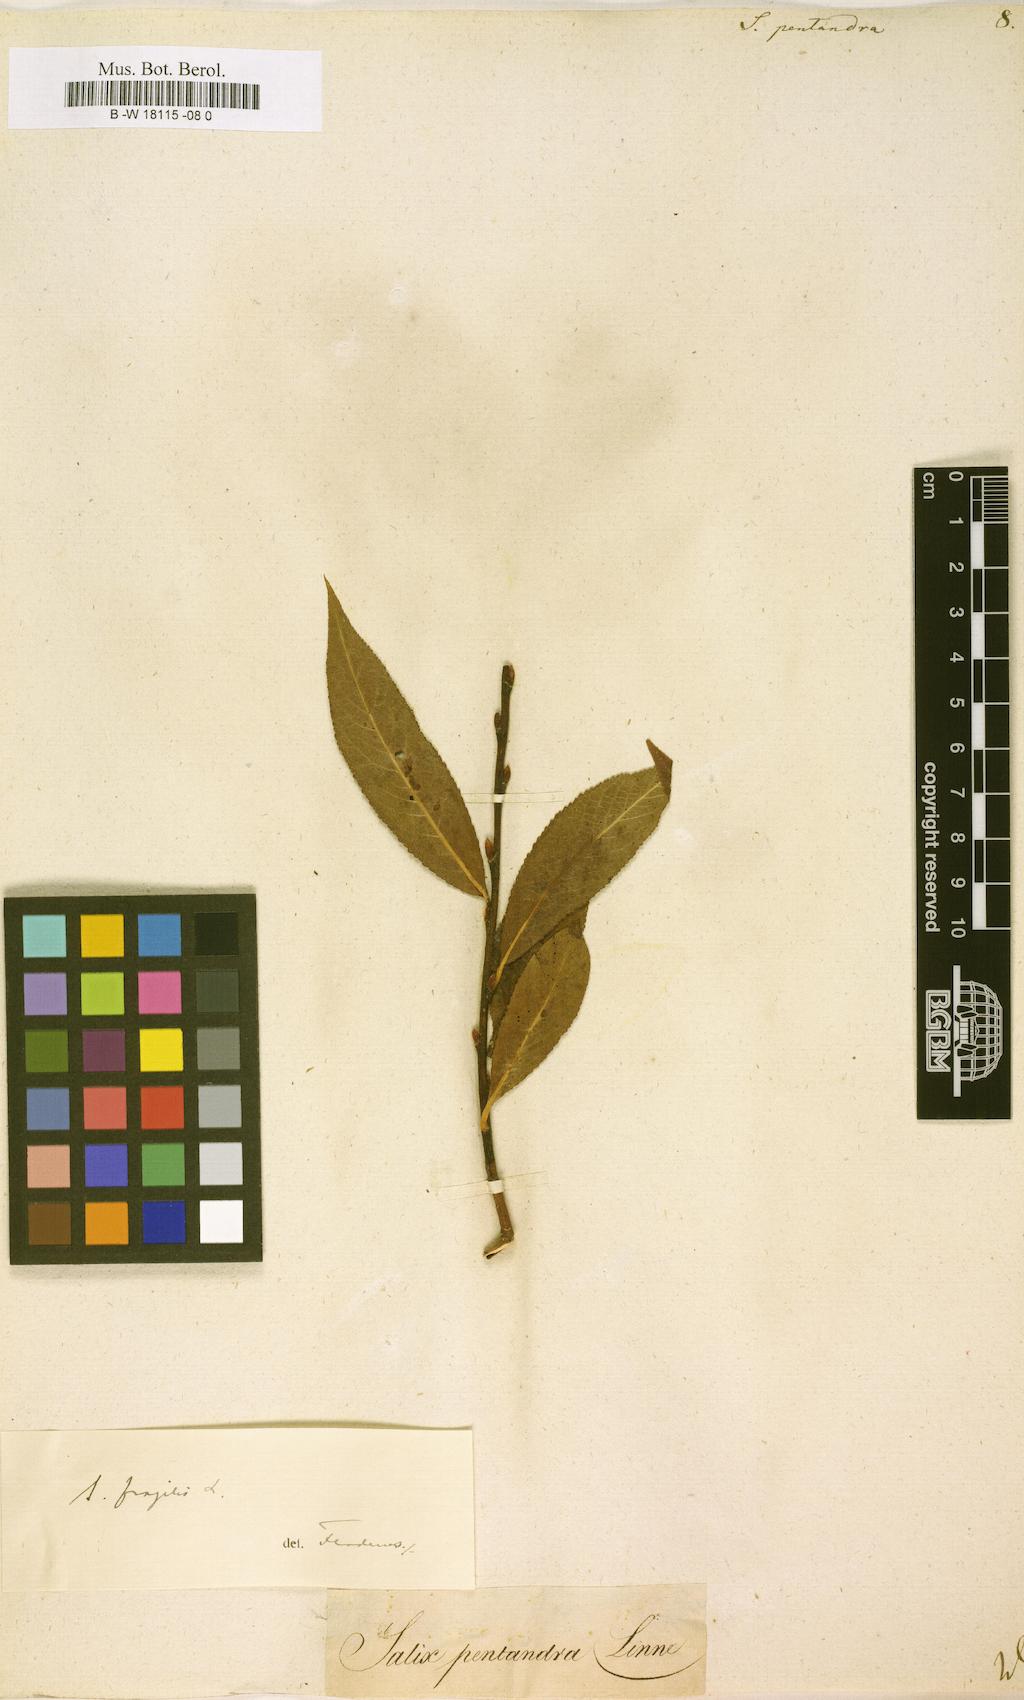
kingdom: Plantae
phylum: Tracheophyta
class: Magnoliopsida
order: Malpighiales
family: Salicaceae
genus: Salix
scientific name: Salix pentandra
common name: Bay willow
